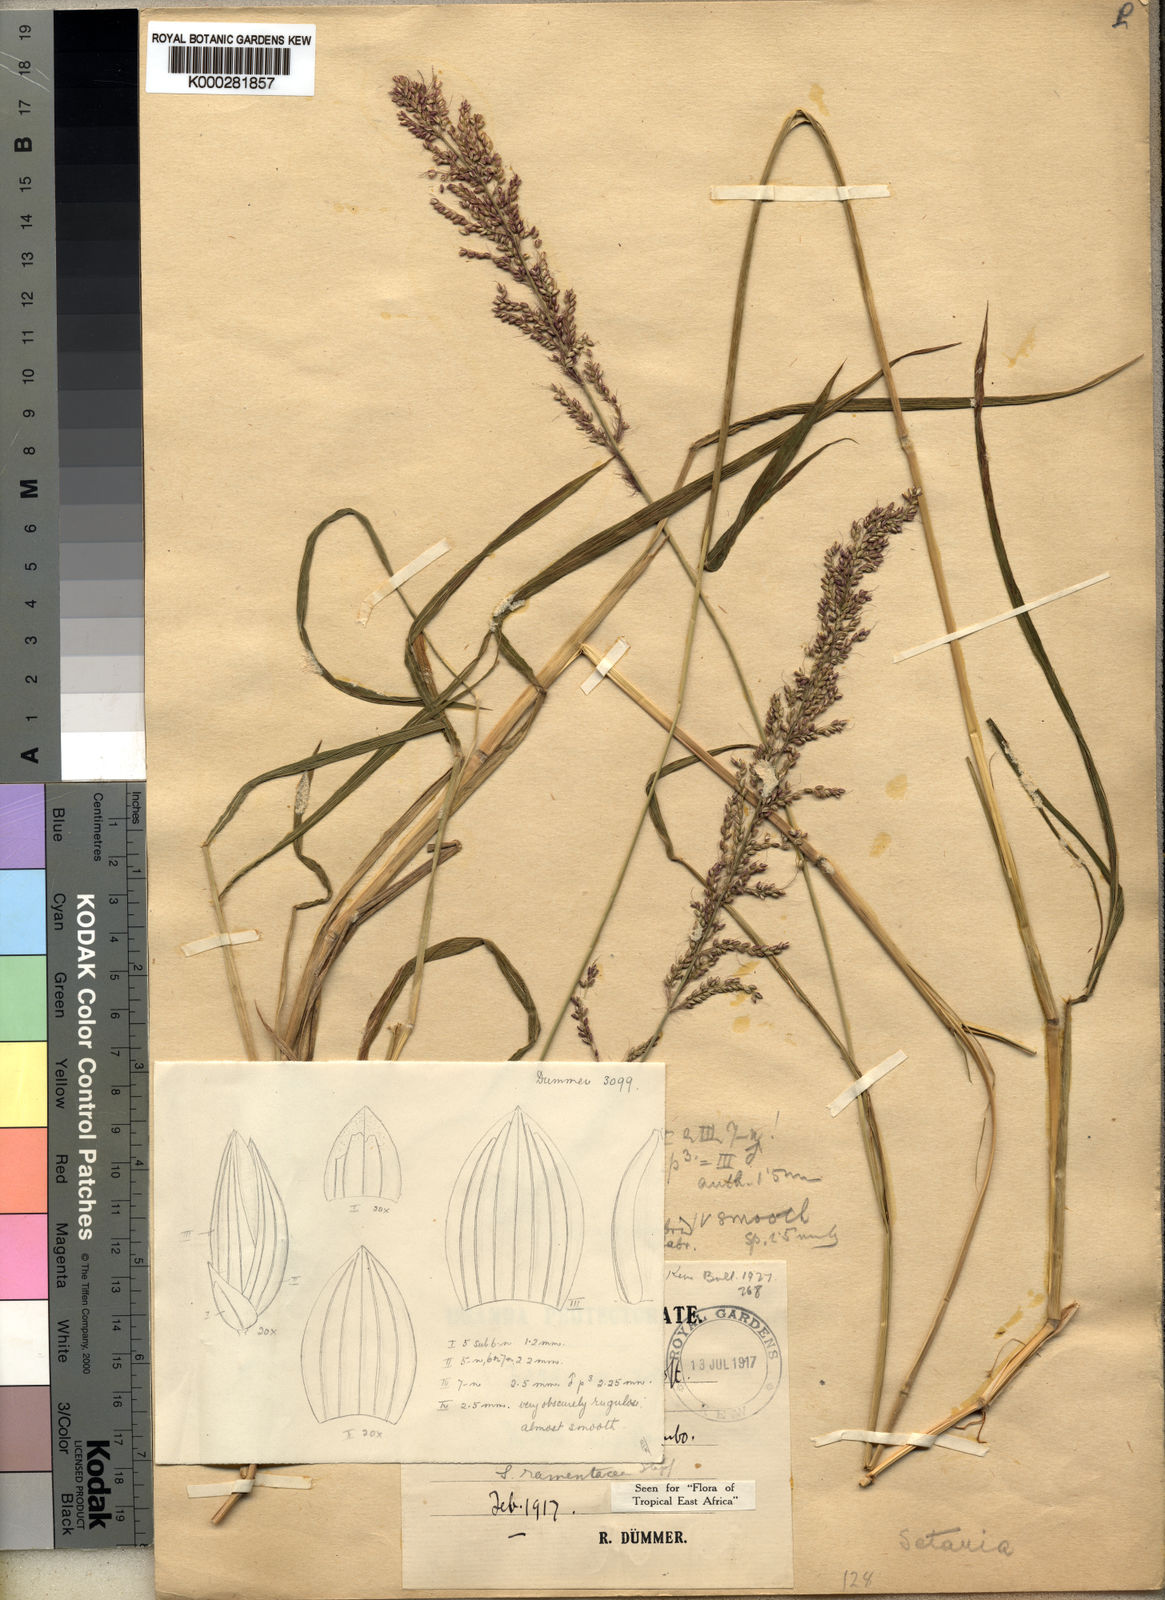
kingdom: Plantae
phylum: Tracheophyta
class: Liliopsida
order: Poales
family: Poaceae
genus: Setaria
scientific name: Setaria kagerensis
